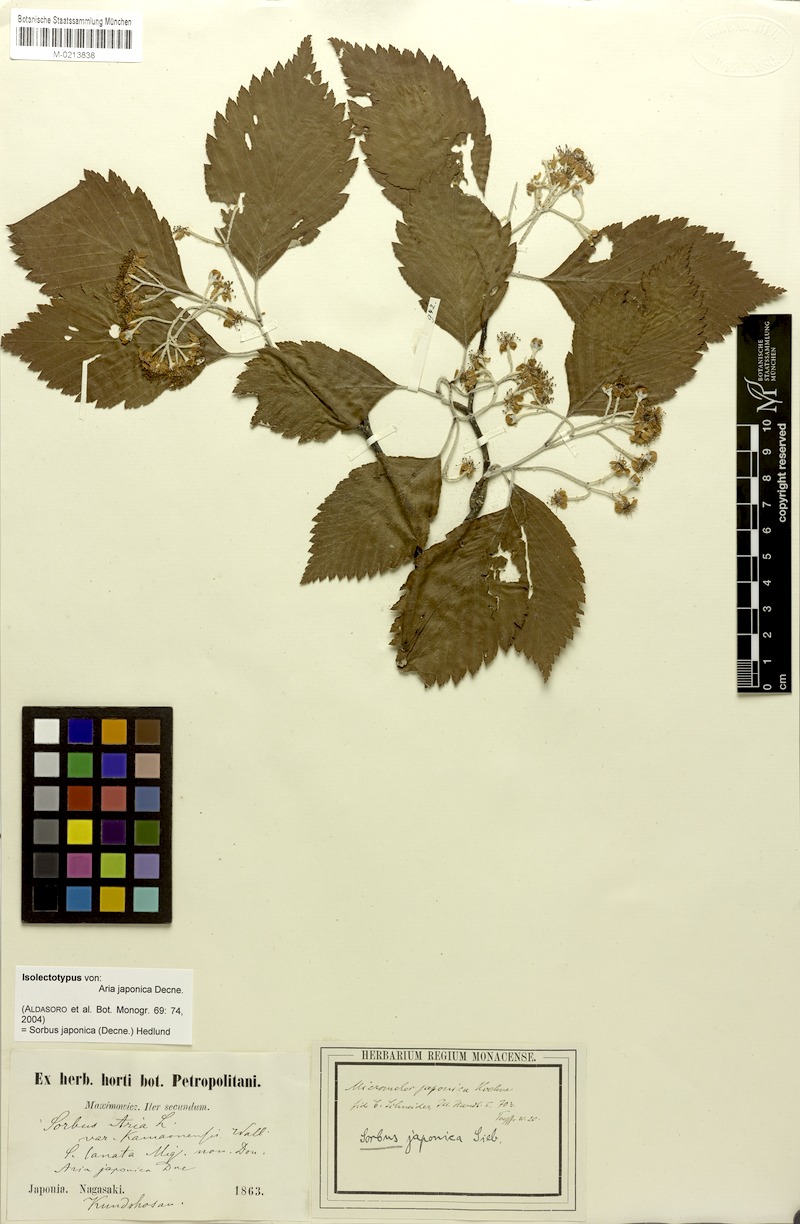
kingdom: Plantae
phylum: Tracheophyta
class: Magnoliopsida
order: Rosales
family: Rosaceae
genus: Sorbus
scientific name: Sorbus japonica
